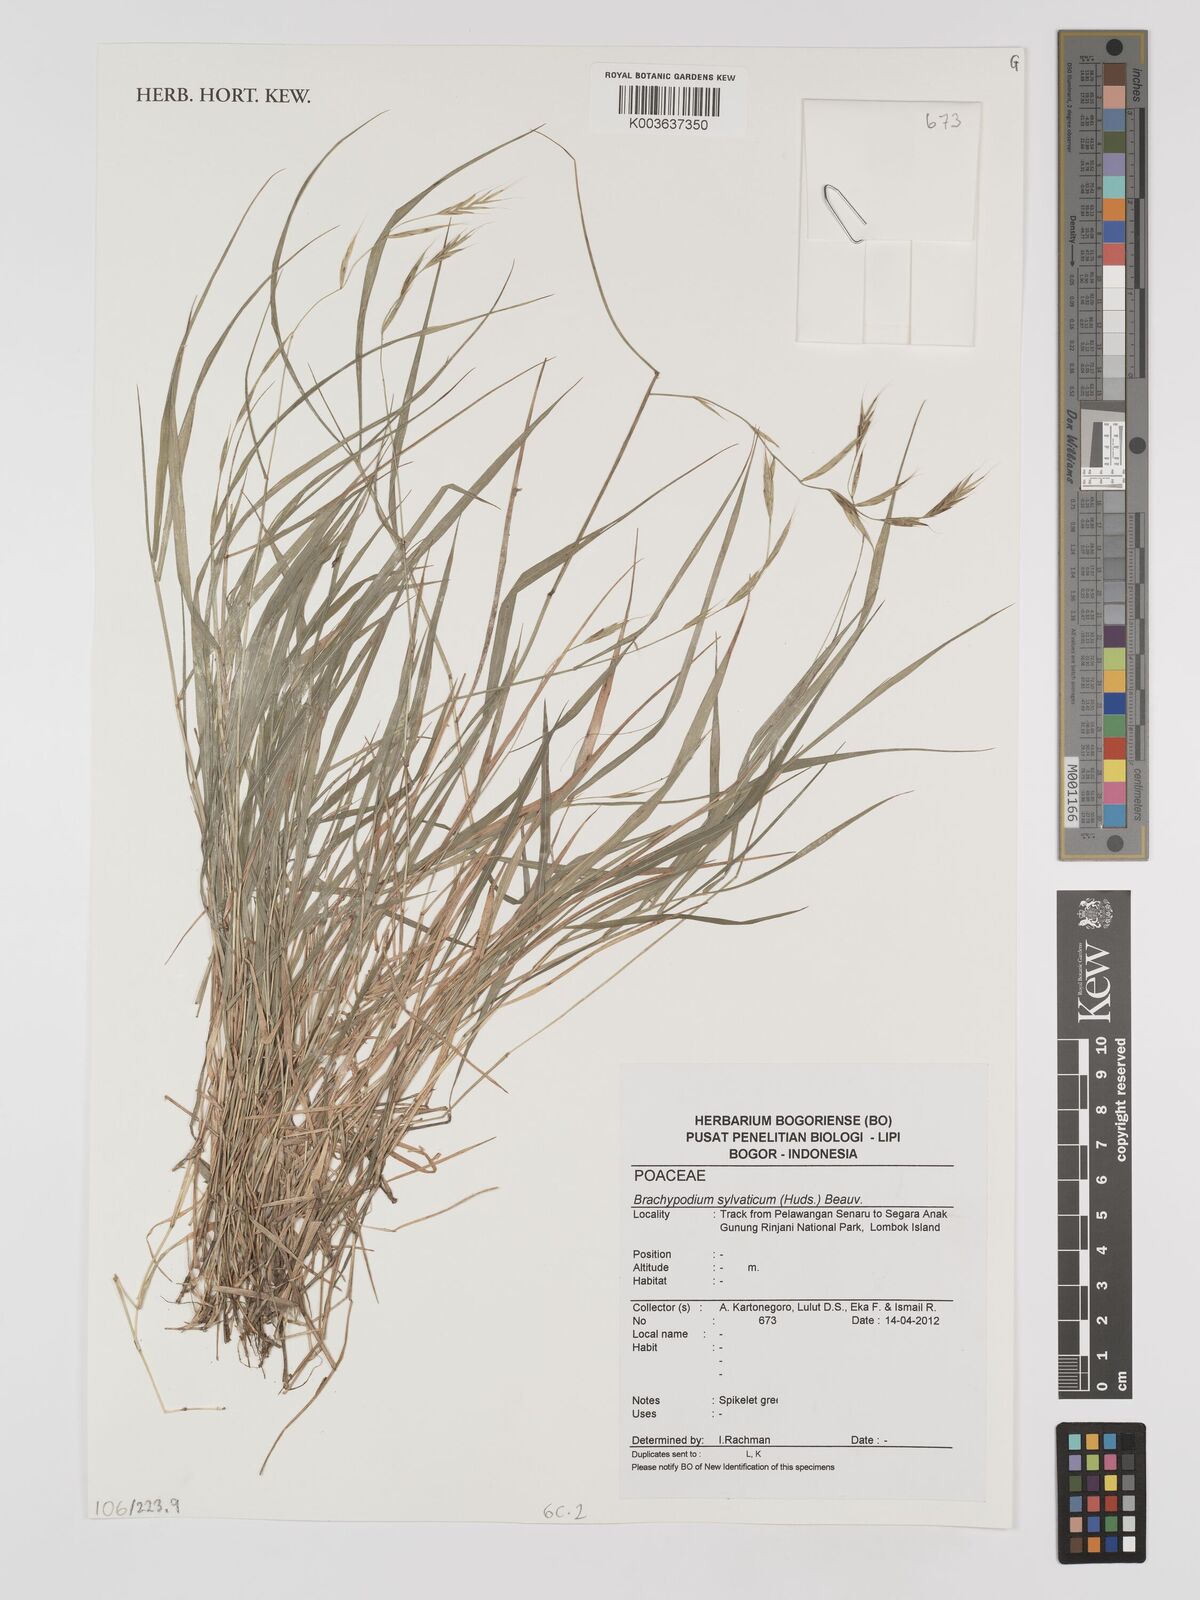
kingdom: Plantae
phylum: Tracheophyta
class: Liliopsida
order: Poales
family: Poaceae
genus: Brachypodium
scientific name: Brachypodium sylvaticum
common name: False-brome
